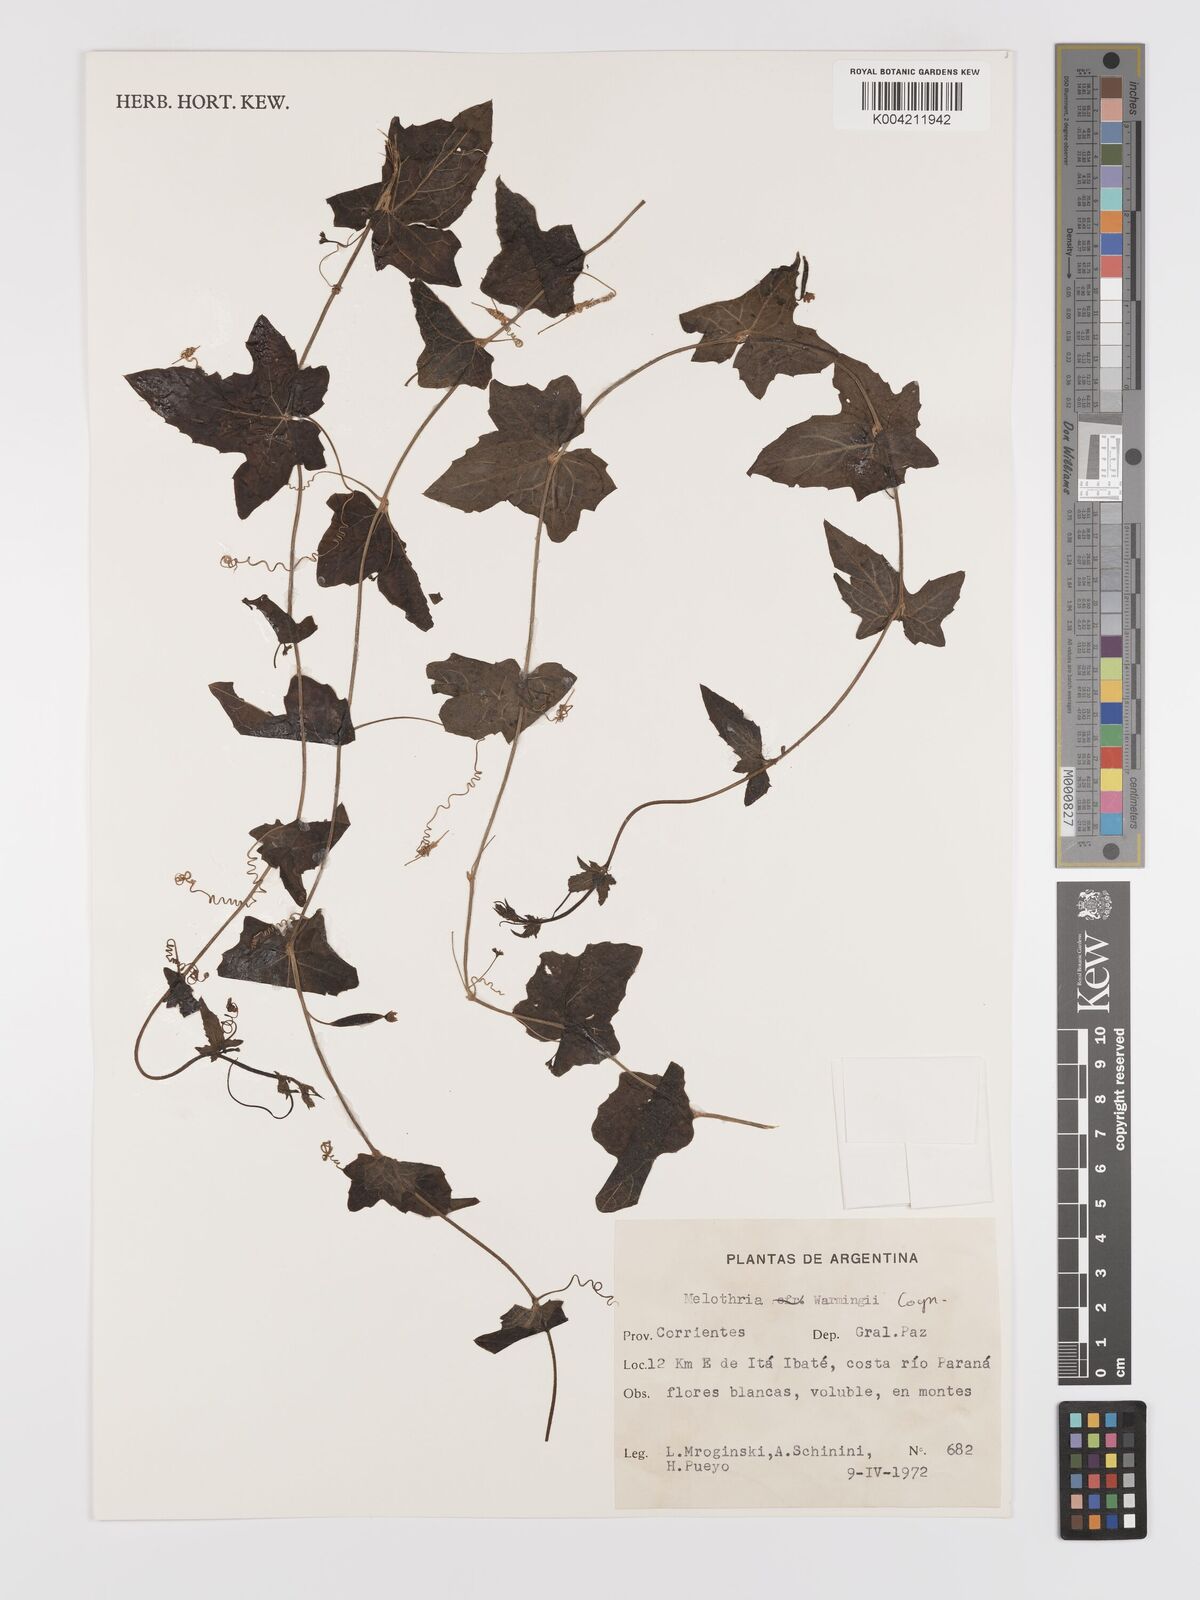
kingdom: Plantae
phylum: Tracheophyta
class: Magnoliopsida
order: Cucurbitales
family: Cucurbitaceae
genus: Melothria
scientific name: Melothria warmingii
